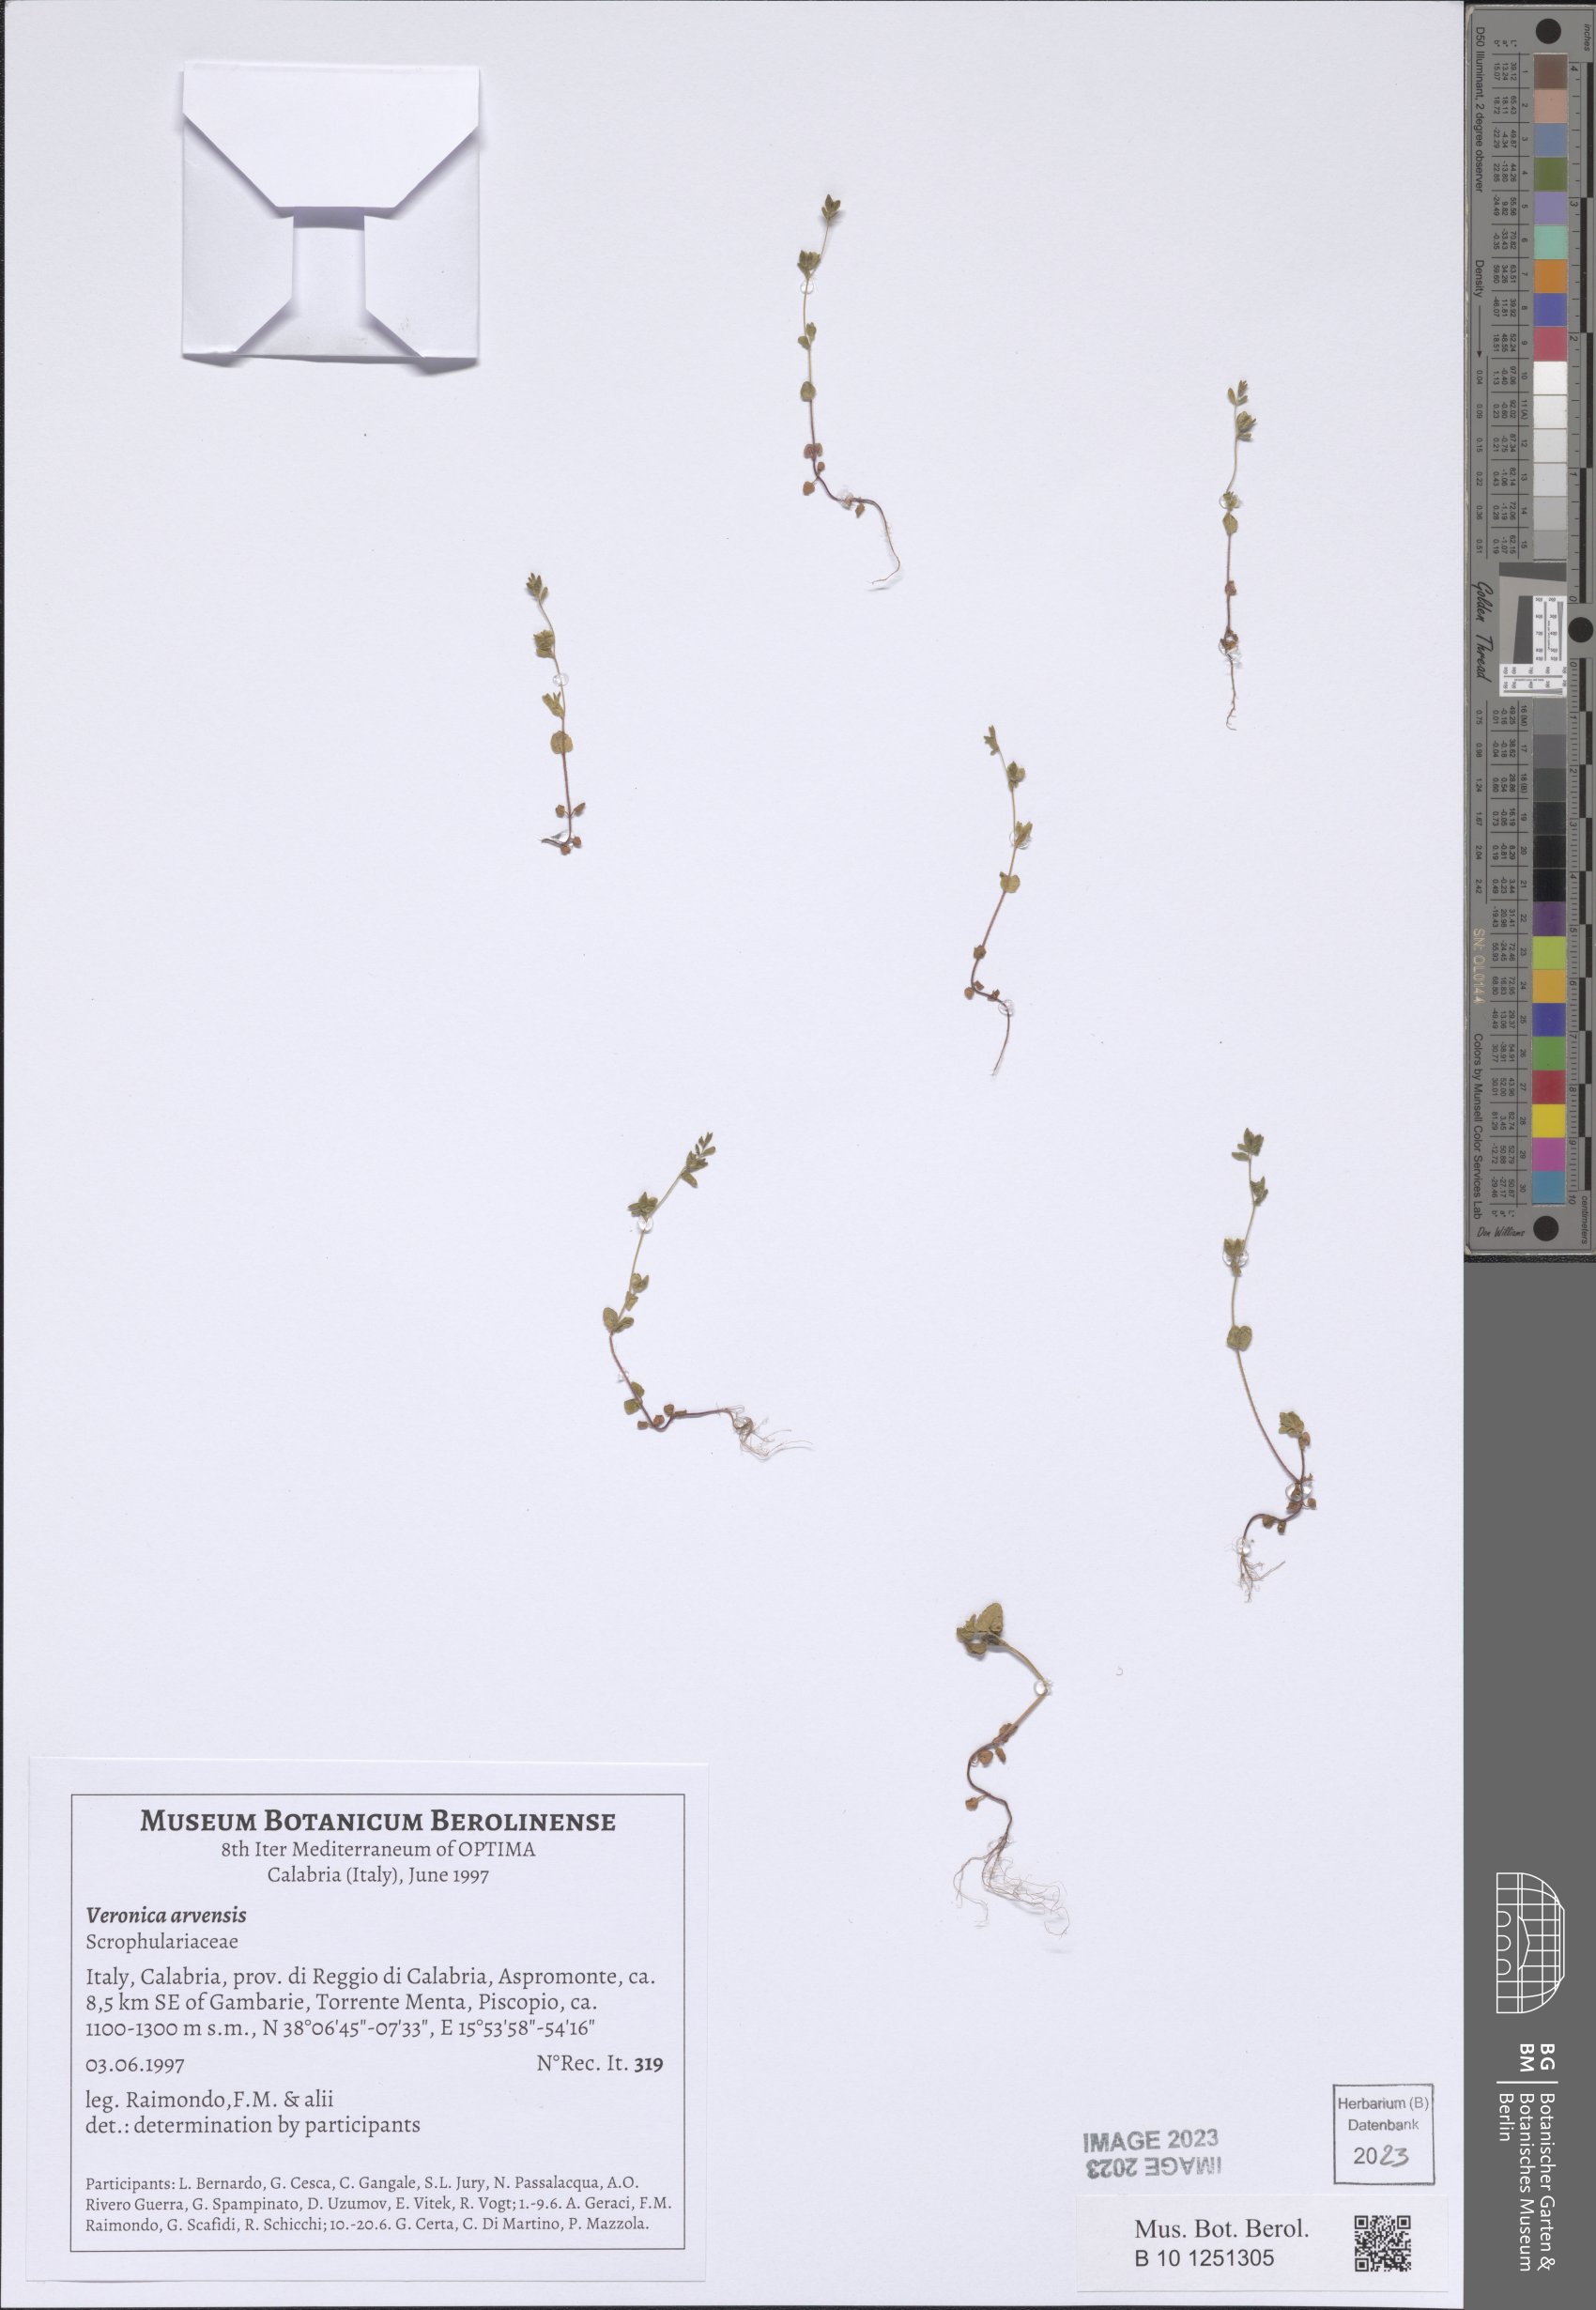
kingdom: Plantae
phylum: Tracheophyta
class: Magnoliopsida
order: Lamiales
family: Plantaginaceae
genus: Veronica
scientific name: Veronica arvensis
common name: Corn speedwell
